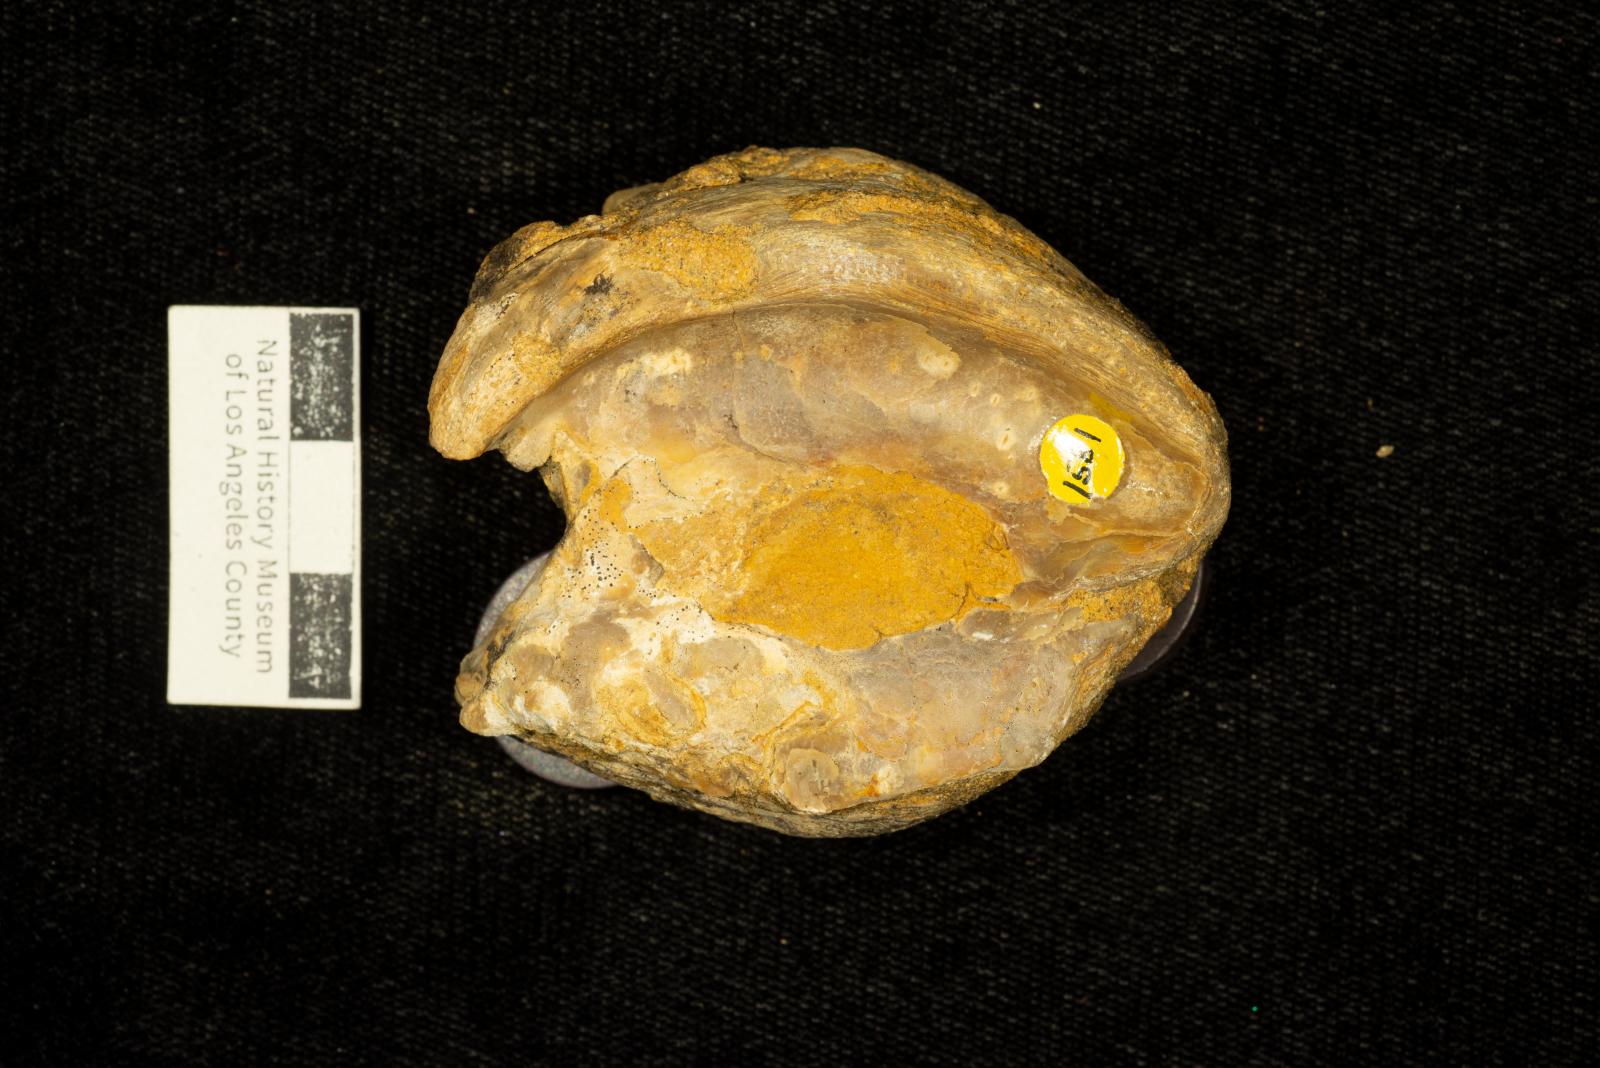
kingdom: Animalia
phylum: Mollusca
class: Bivalvia
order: Ostreida
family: Gryphaeidae
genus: Amphidonte
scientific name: Amphidonte Exogyra parasitica
